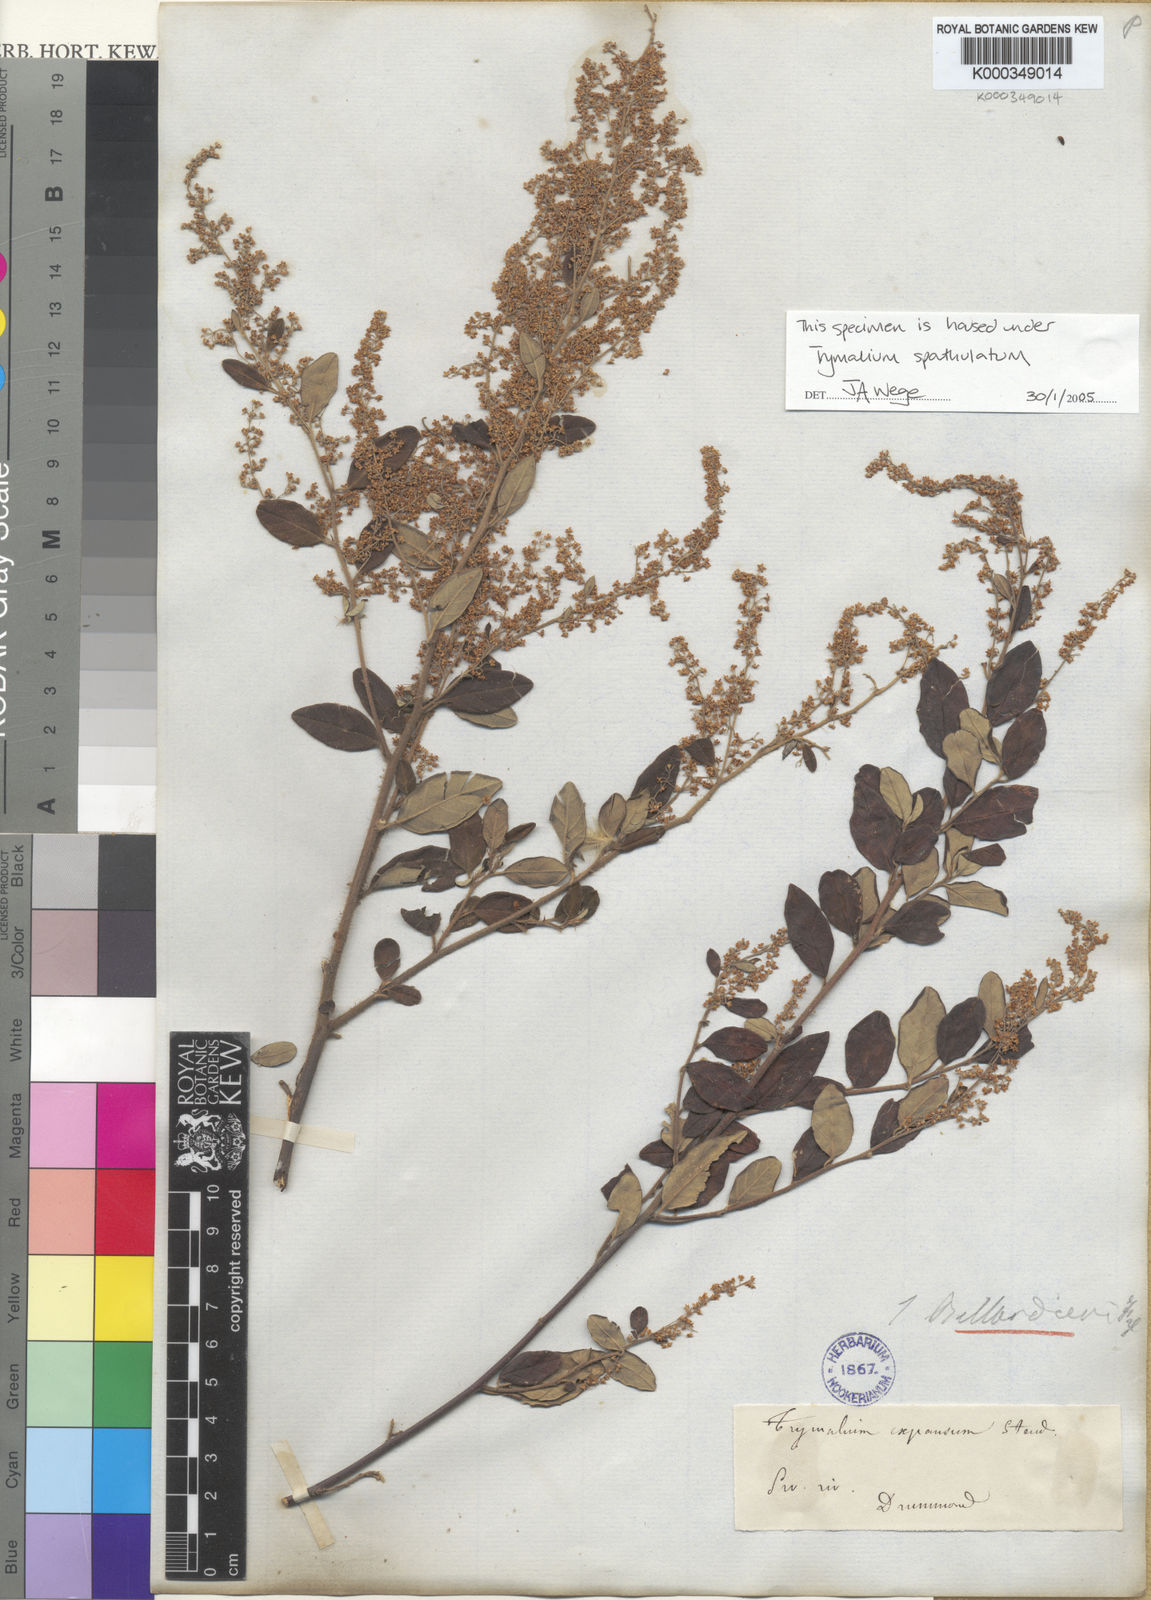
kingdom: Plantae
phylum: Tracheophyta
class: Magnoliopsida
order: Rosales
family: Rhamnaceae
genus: Trymalium
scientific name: Trymalium
